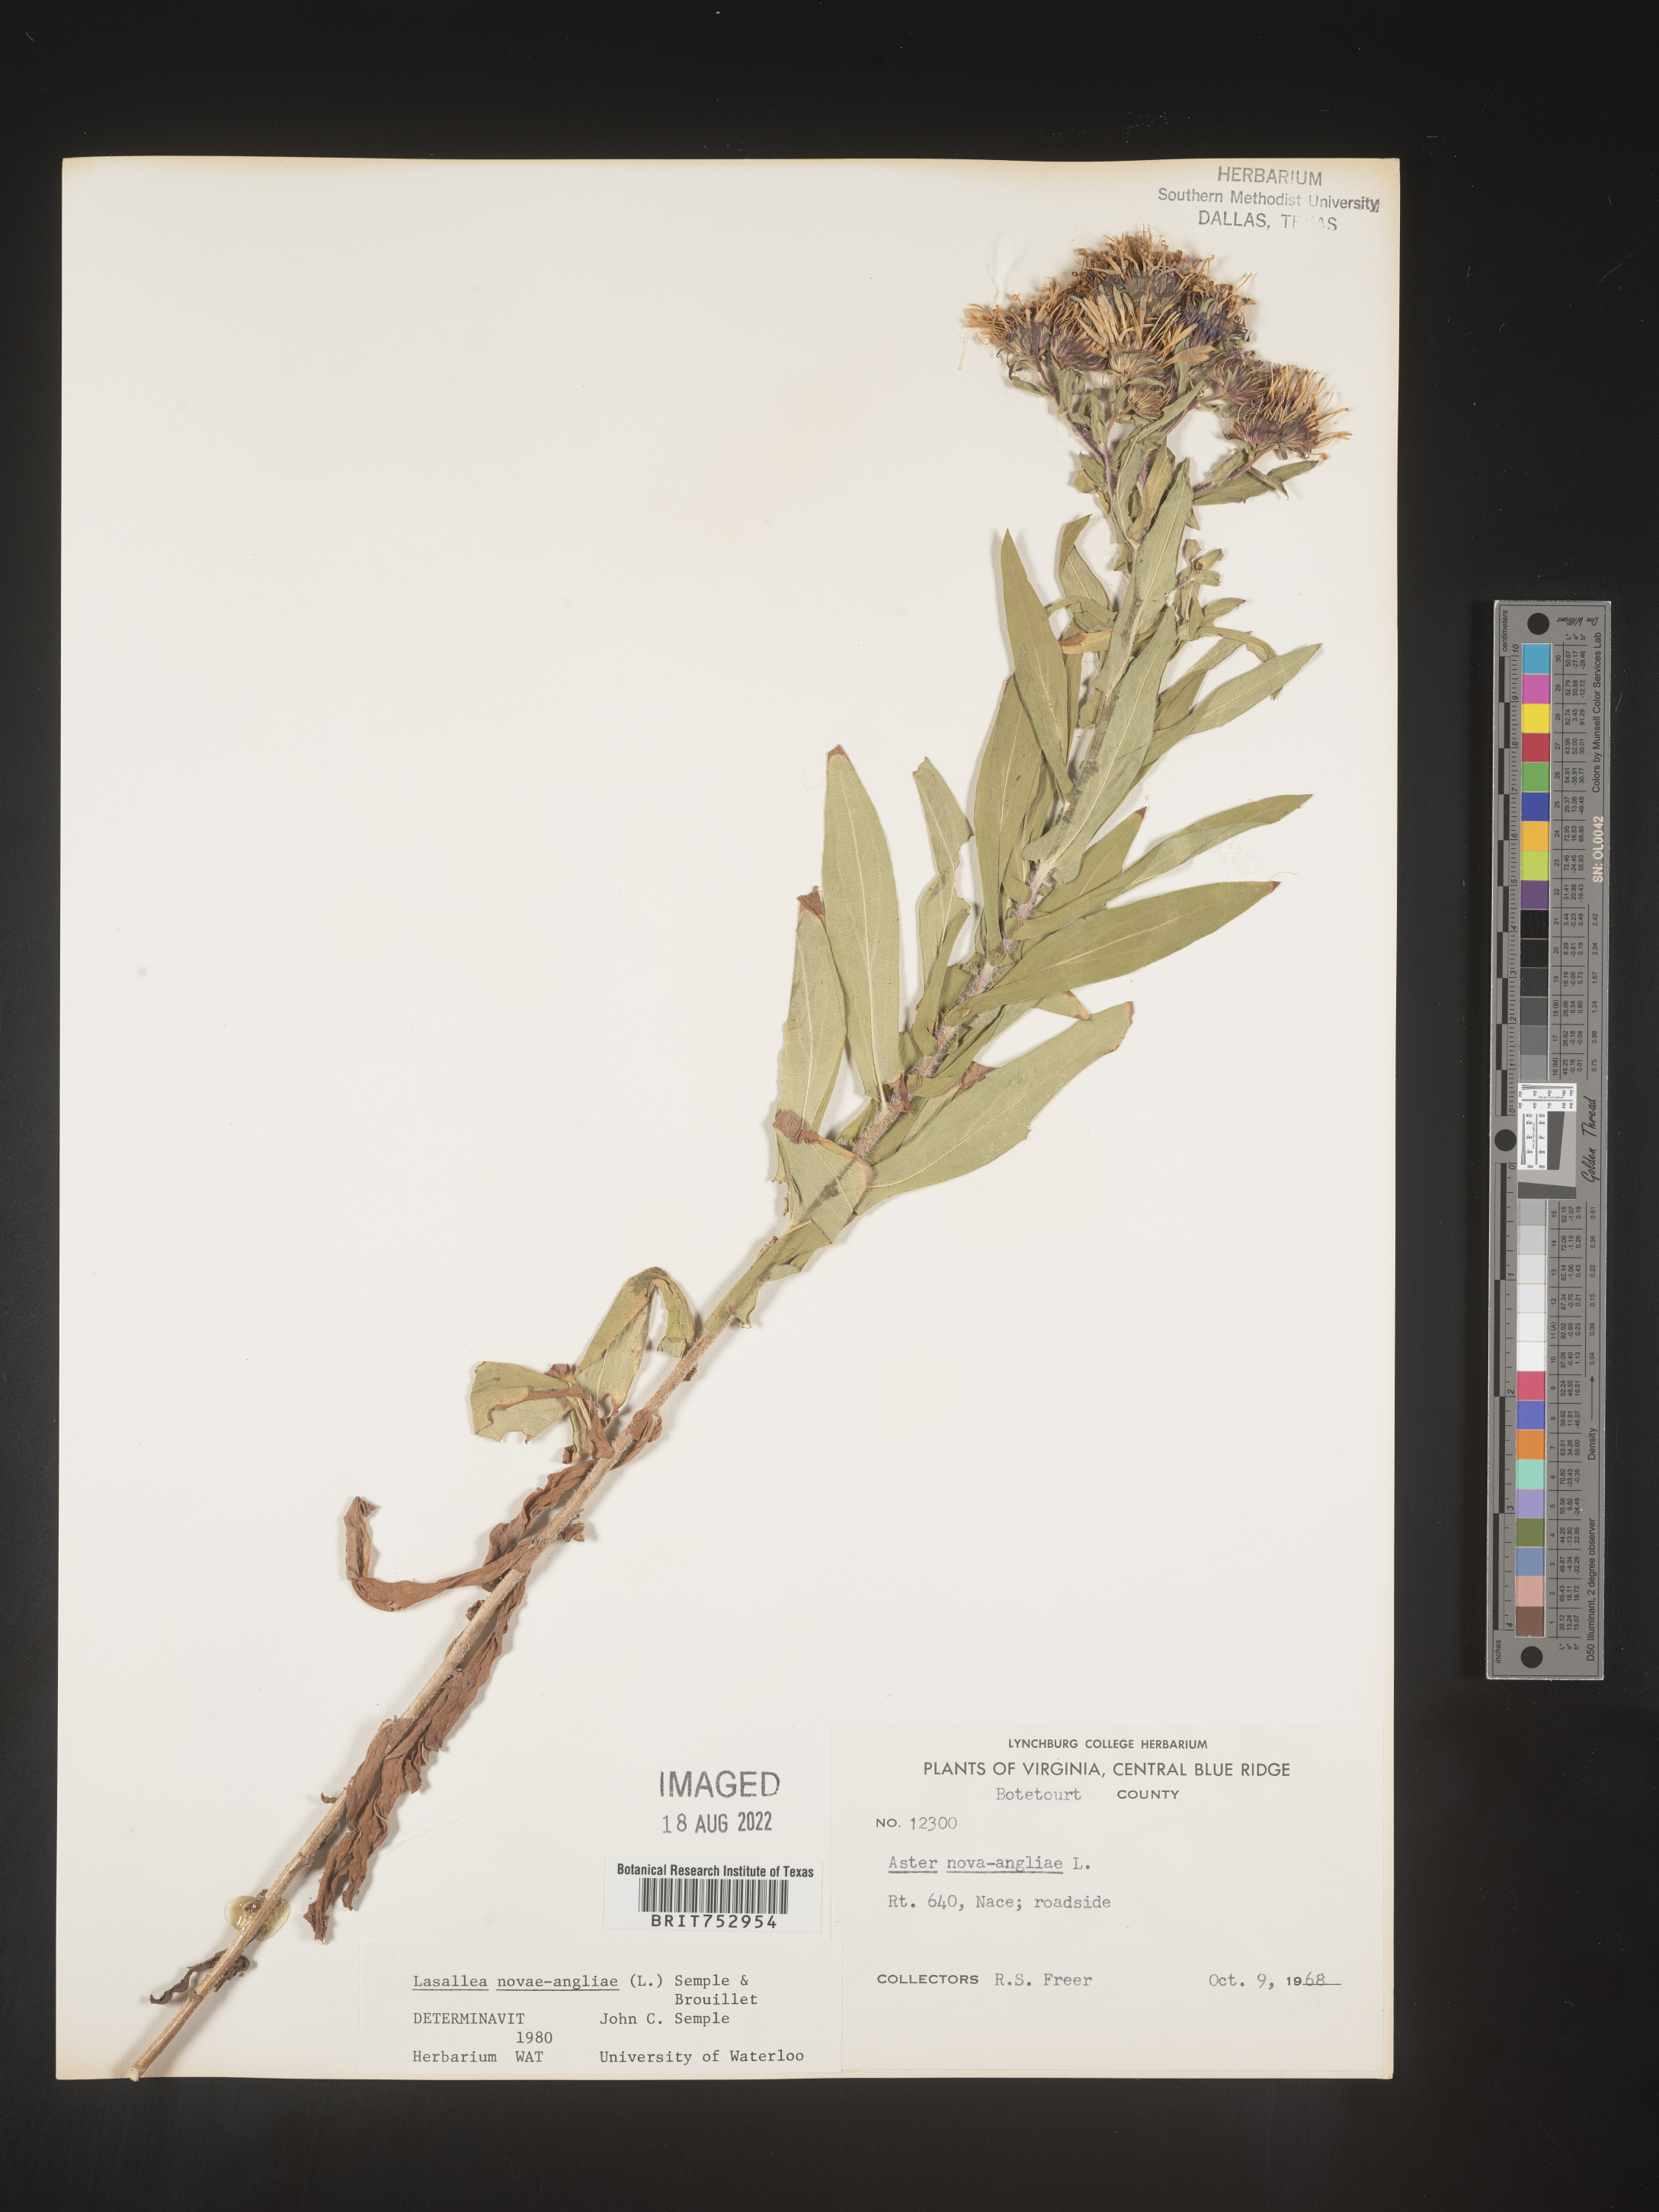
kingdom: Plantae
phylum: Tracheophyta
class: Magnoliopsida
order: Asterales
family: Asteraceae
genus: Symphyotrichum
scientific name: Symphyotrichum novae-angliae
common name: Michaelmas daisy
